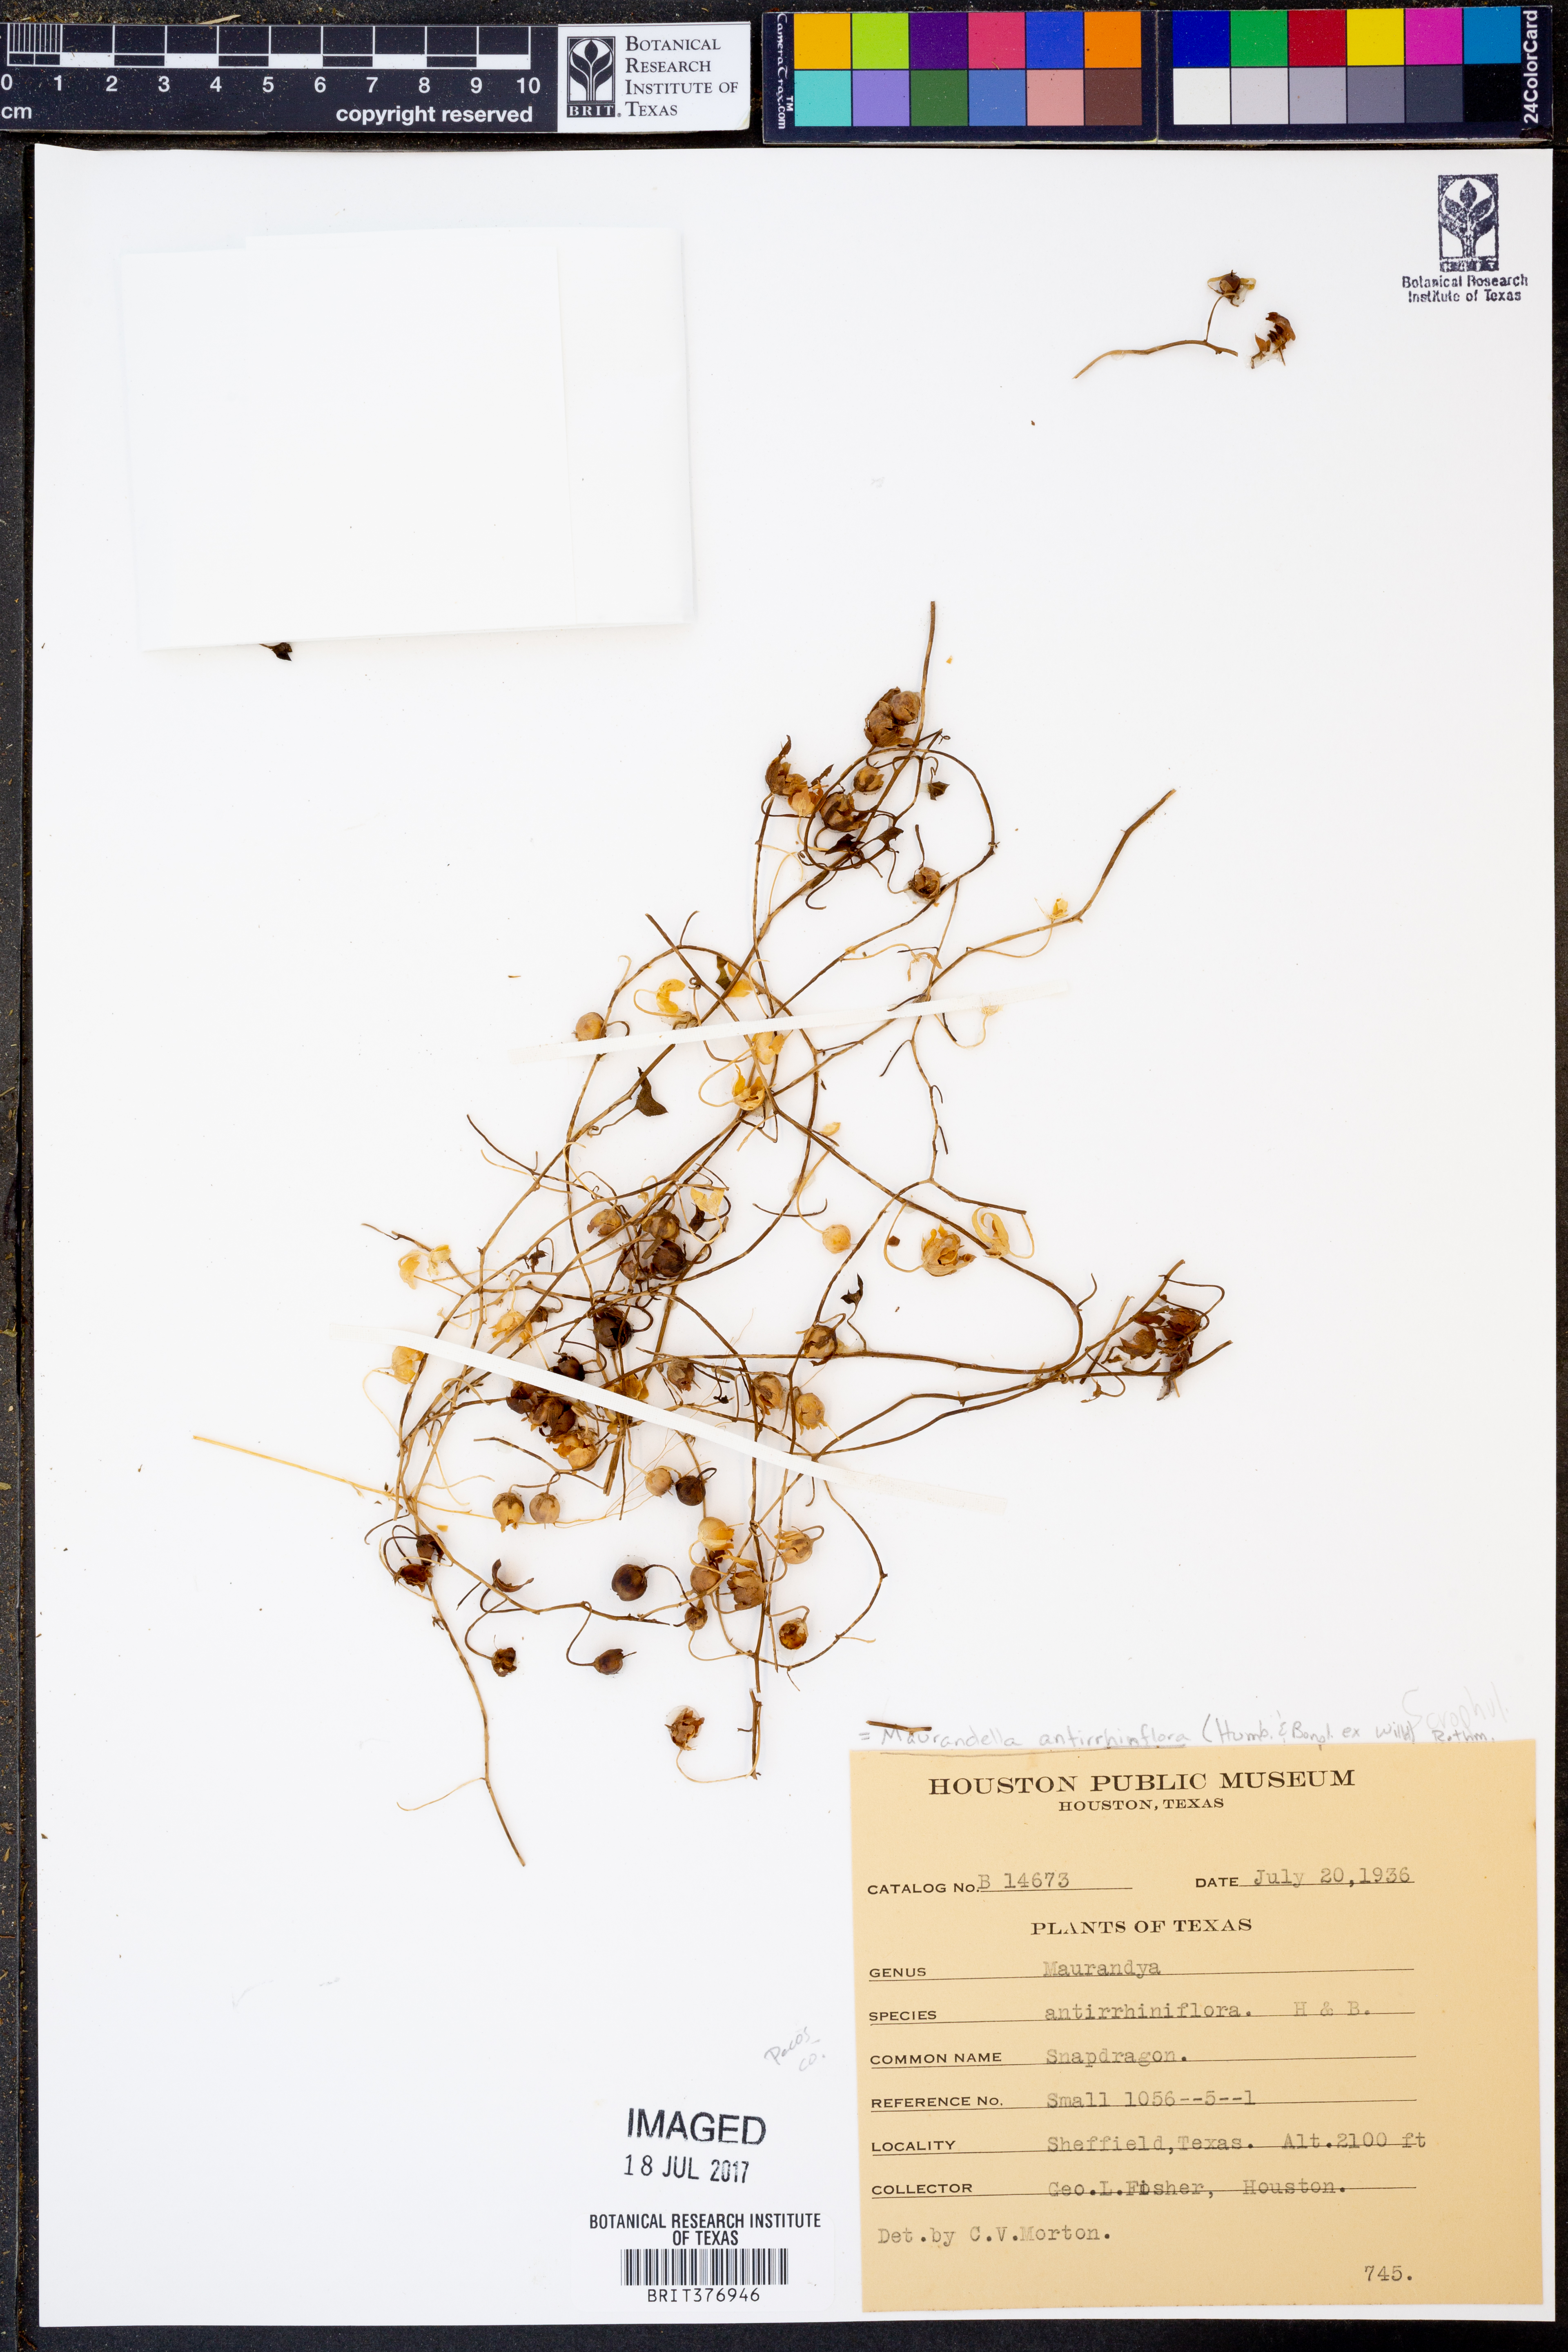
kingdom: Plantae
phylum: Tracheophyta
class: Magnoliopsida
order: Lamiales
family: Plantaginaceae
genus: Maurandella
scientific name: Maurandella antirrhiniflora
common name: Violet twining-snapdragon
